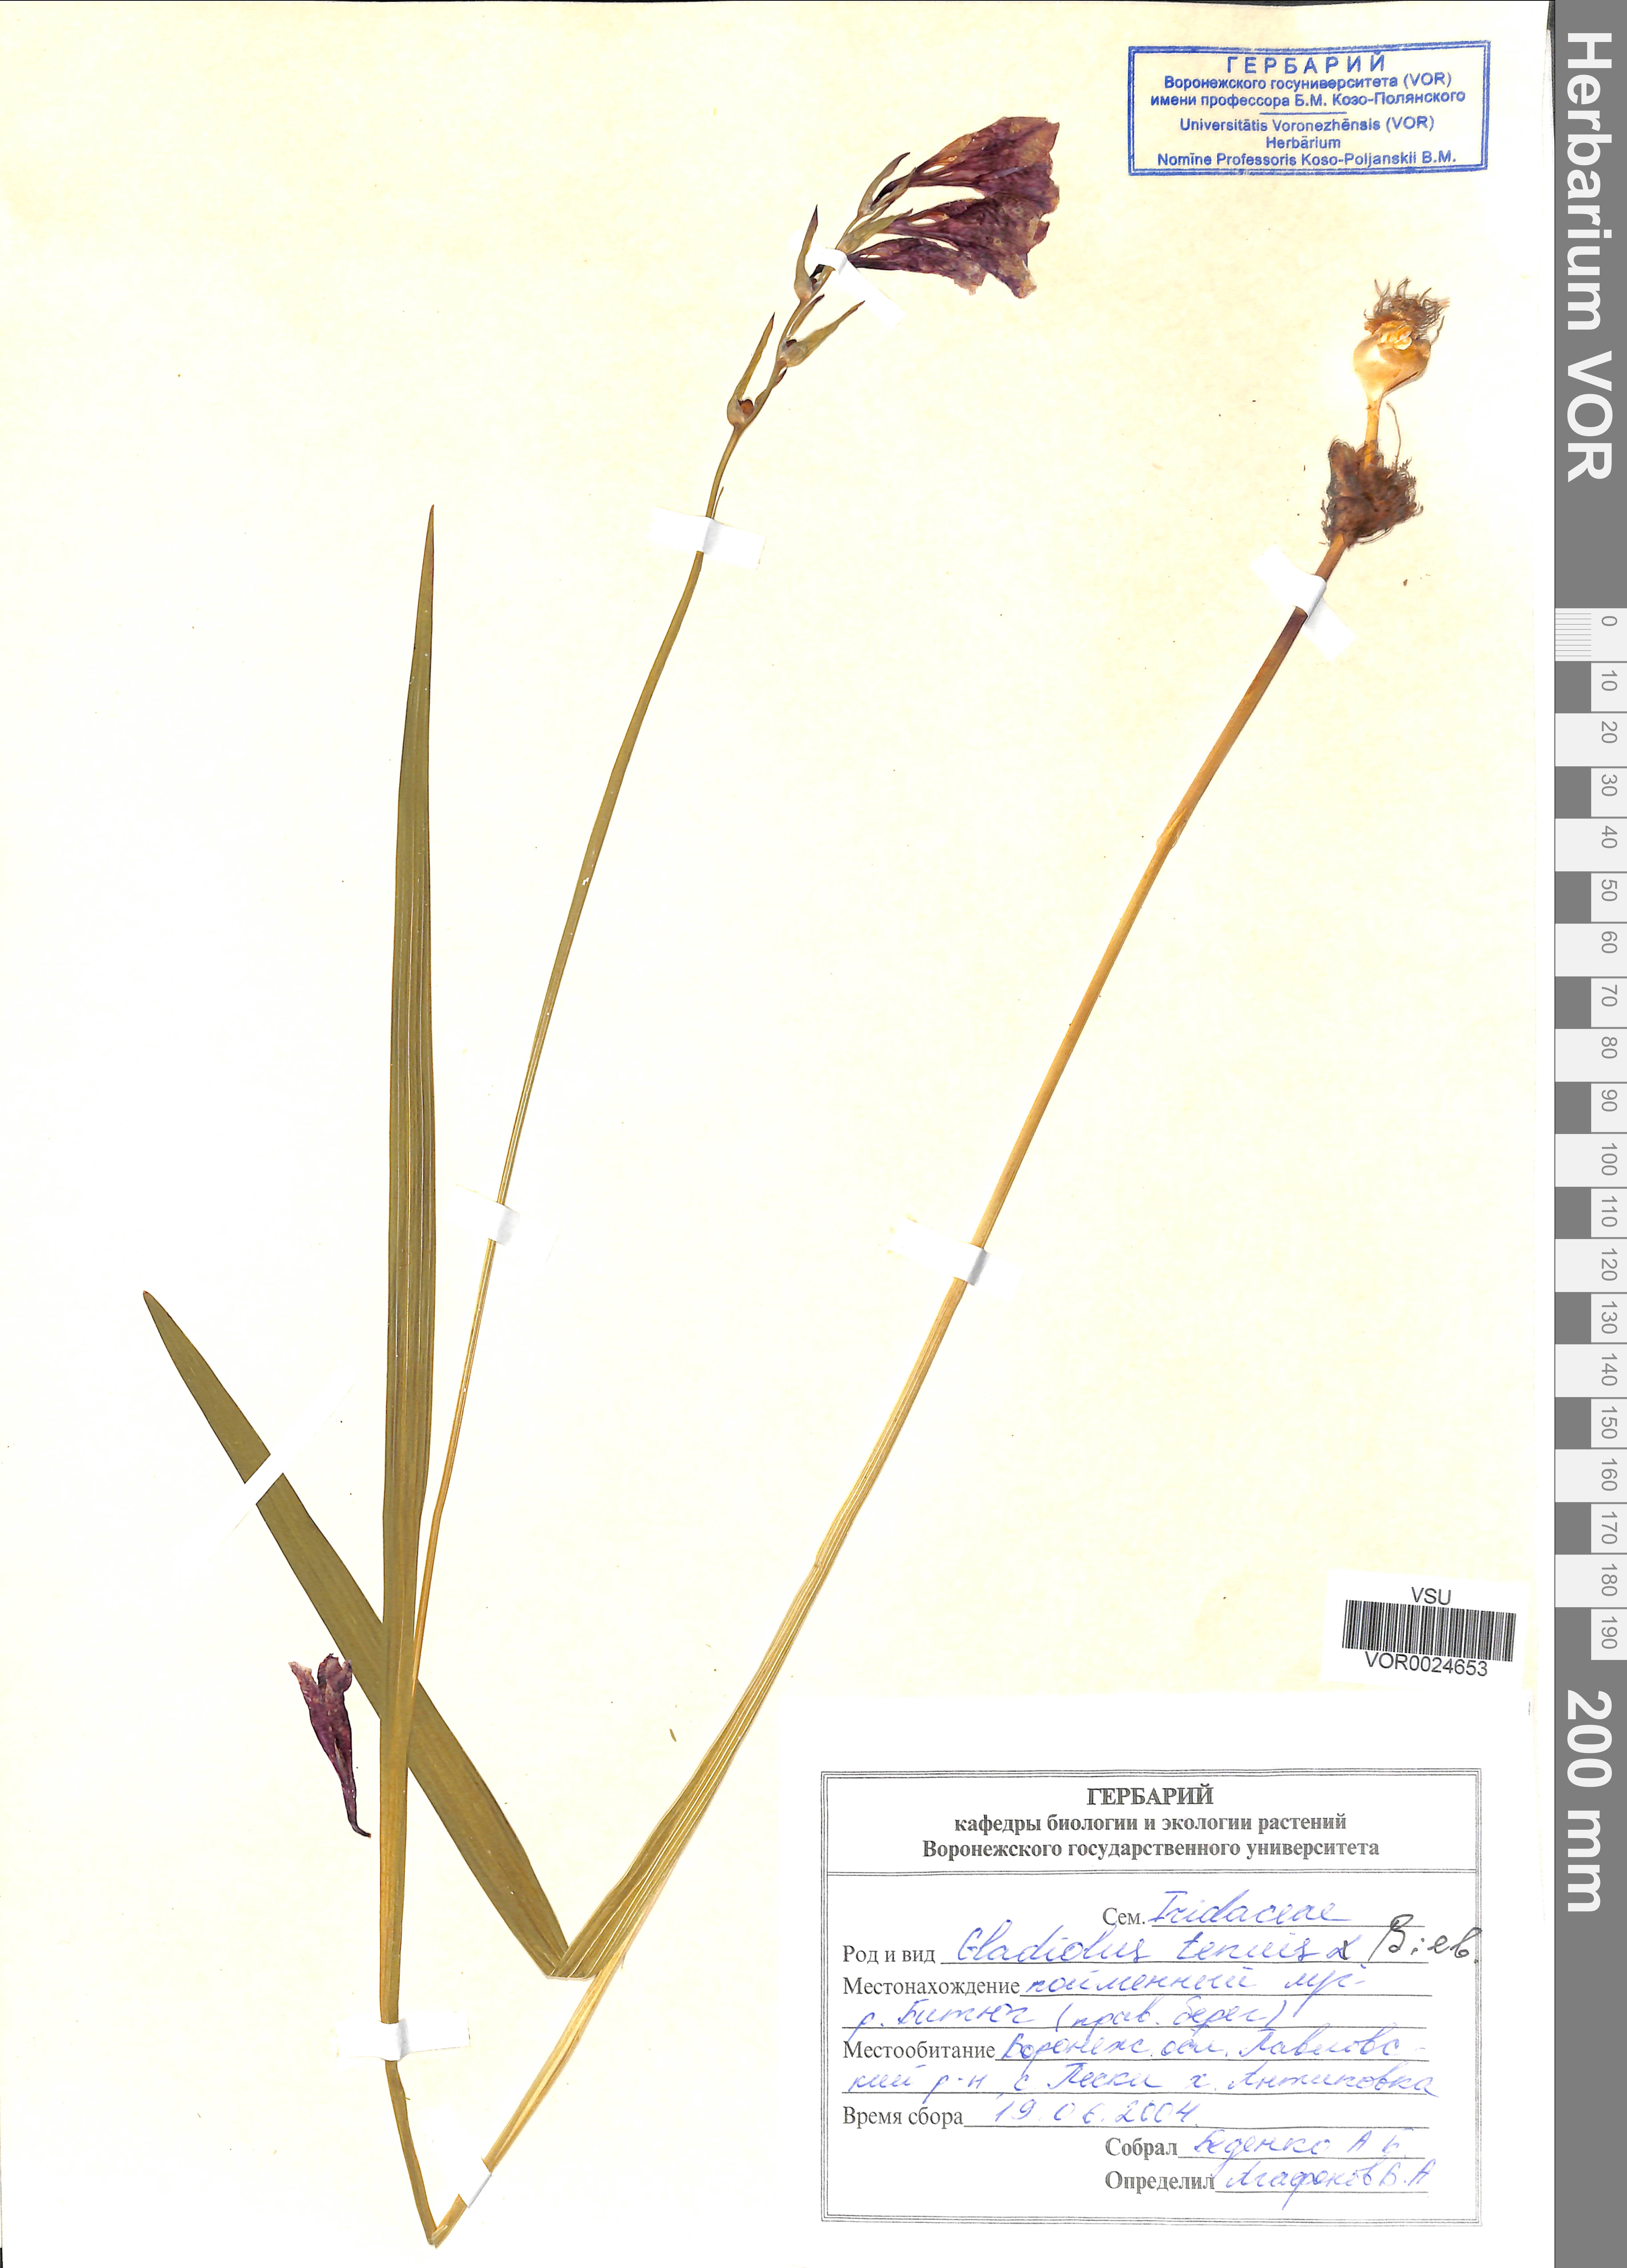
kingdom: Plantae
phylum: Tracheophyta
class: Liliopsida
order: Asparagales
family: Iridaceae
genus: Gladiolus
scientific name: Gladiolus tenuis
